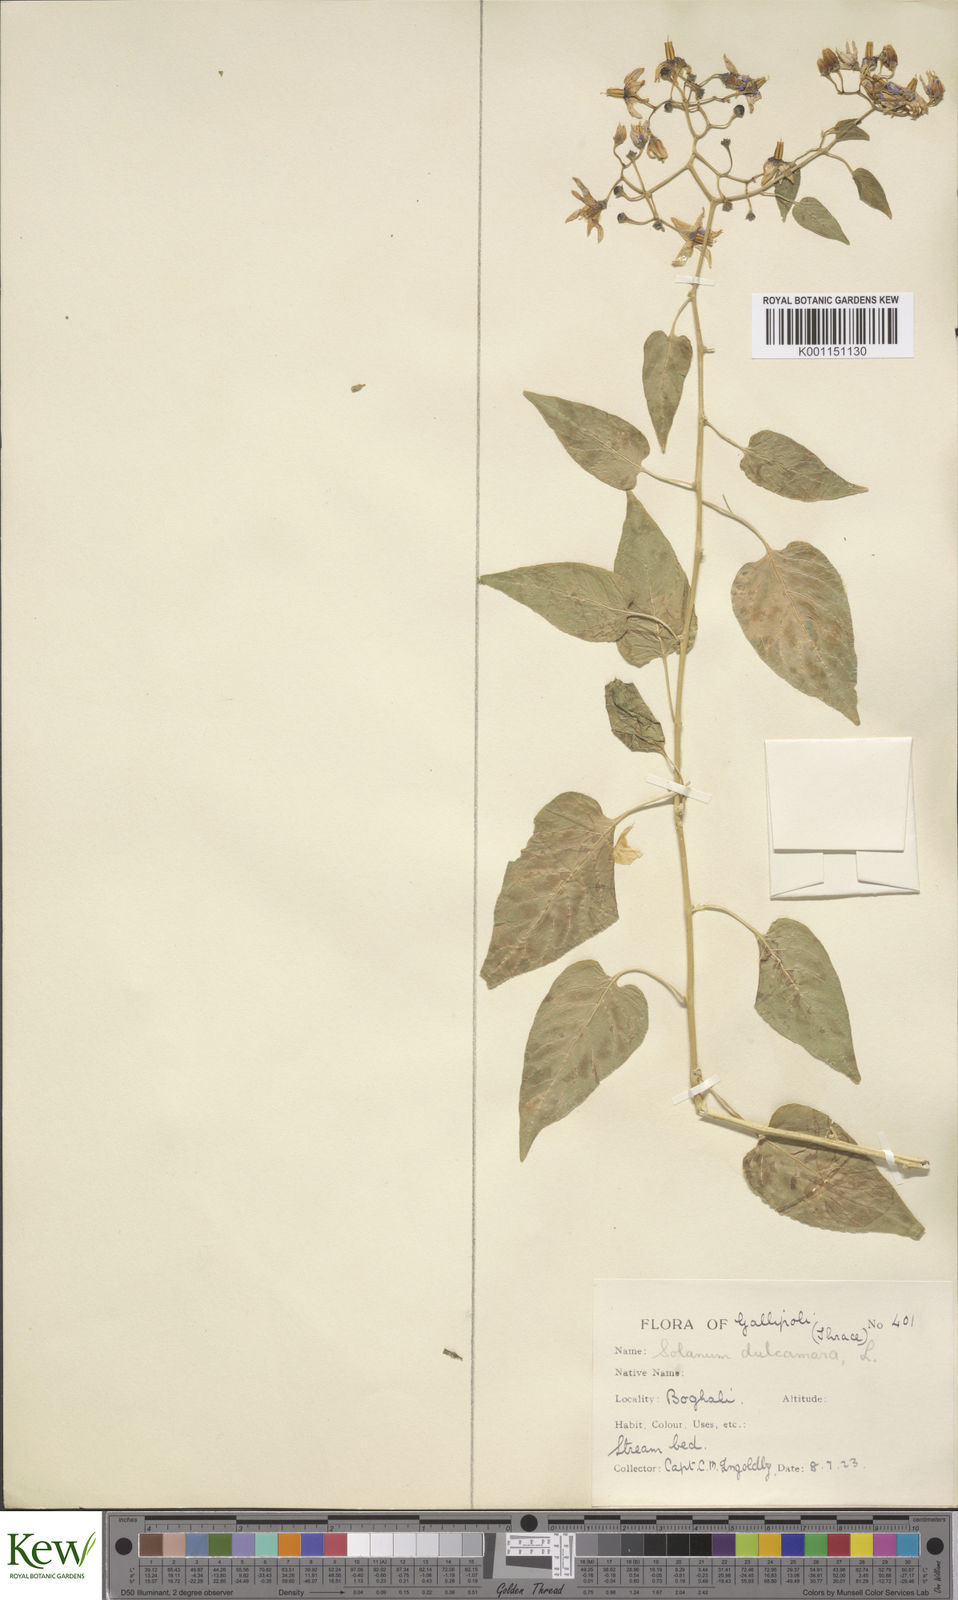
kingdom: Plantae
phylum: Tracheophyta
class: Magnoliopsida
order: Solanales
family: Solanaceae
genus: Solanum
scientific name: Solanum dulcamara
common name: Climbing nightshade
